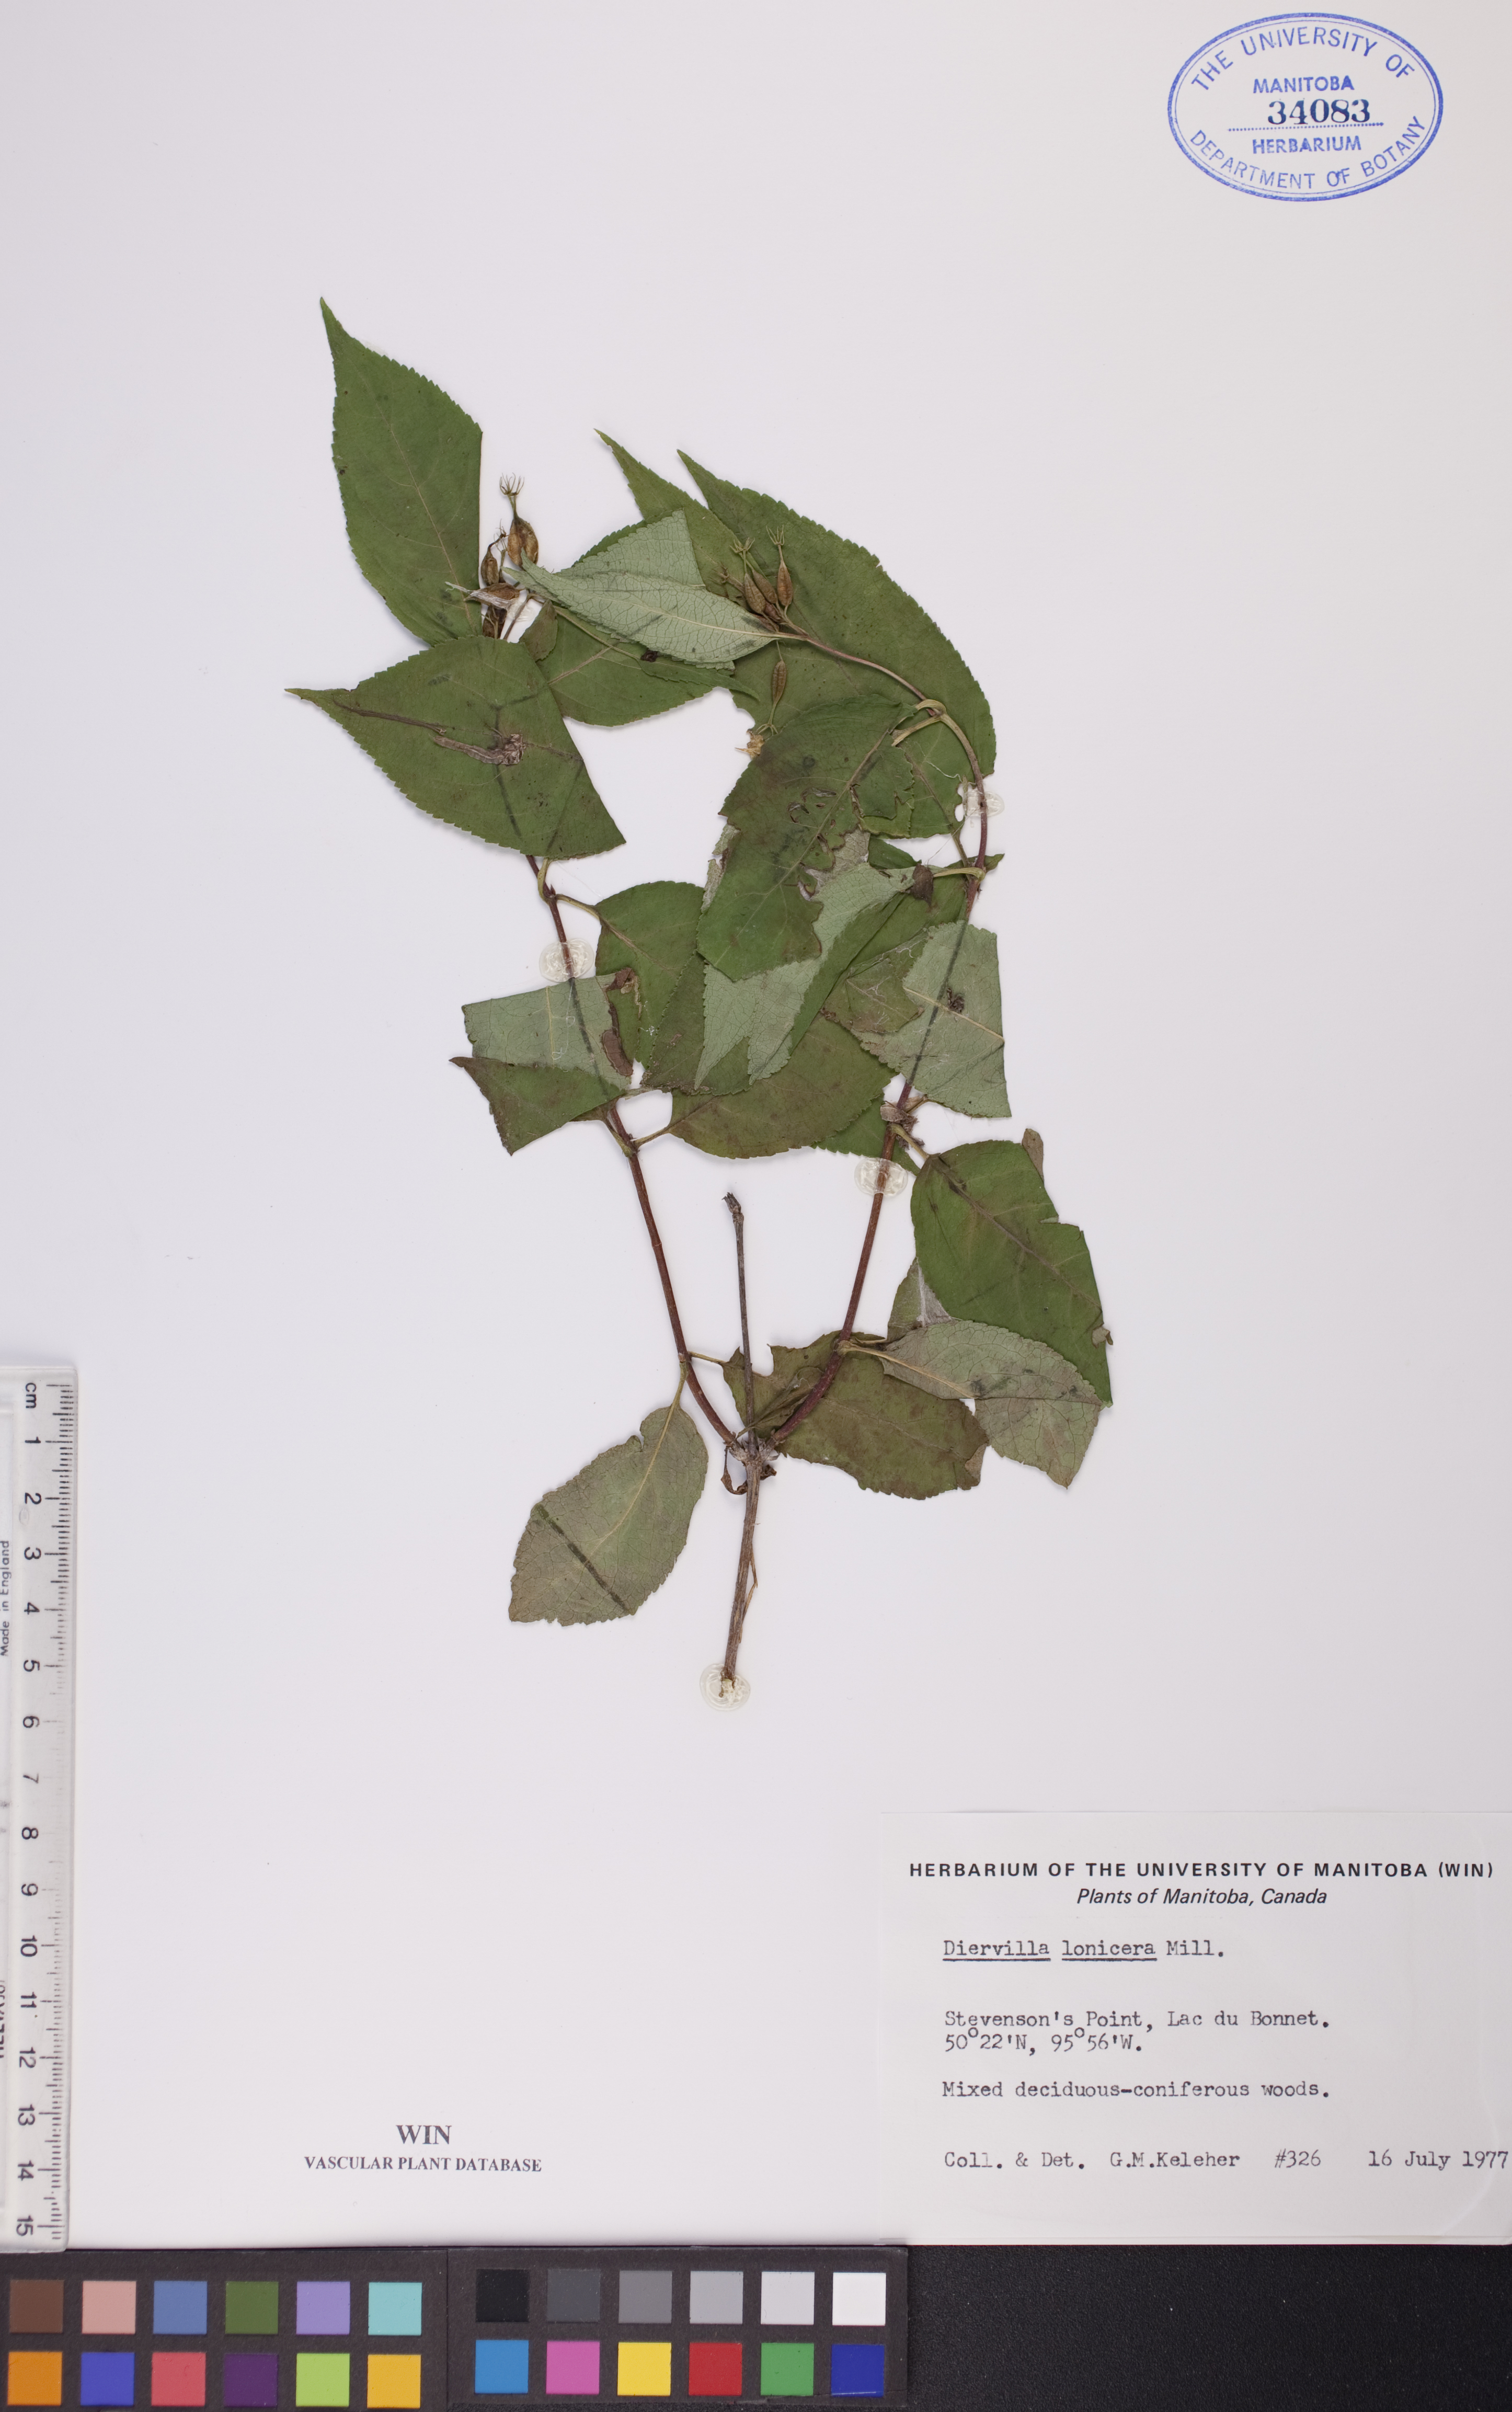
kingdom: Plantae
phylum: Tracheophyta
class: Magnoliopsida
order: Dipsacales
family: Caprifoliaceae
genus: Diervilla
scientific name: Diervilla lonicera
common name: Bush-honeysuckle
